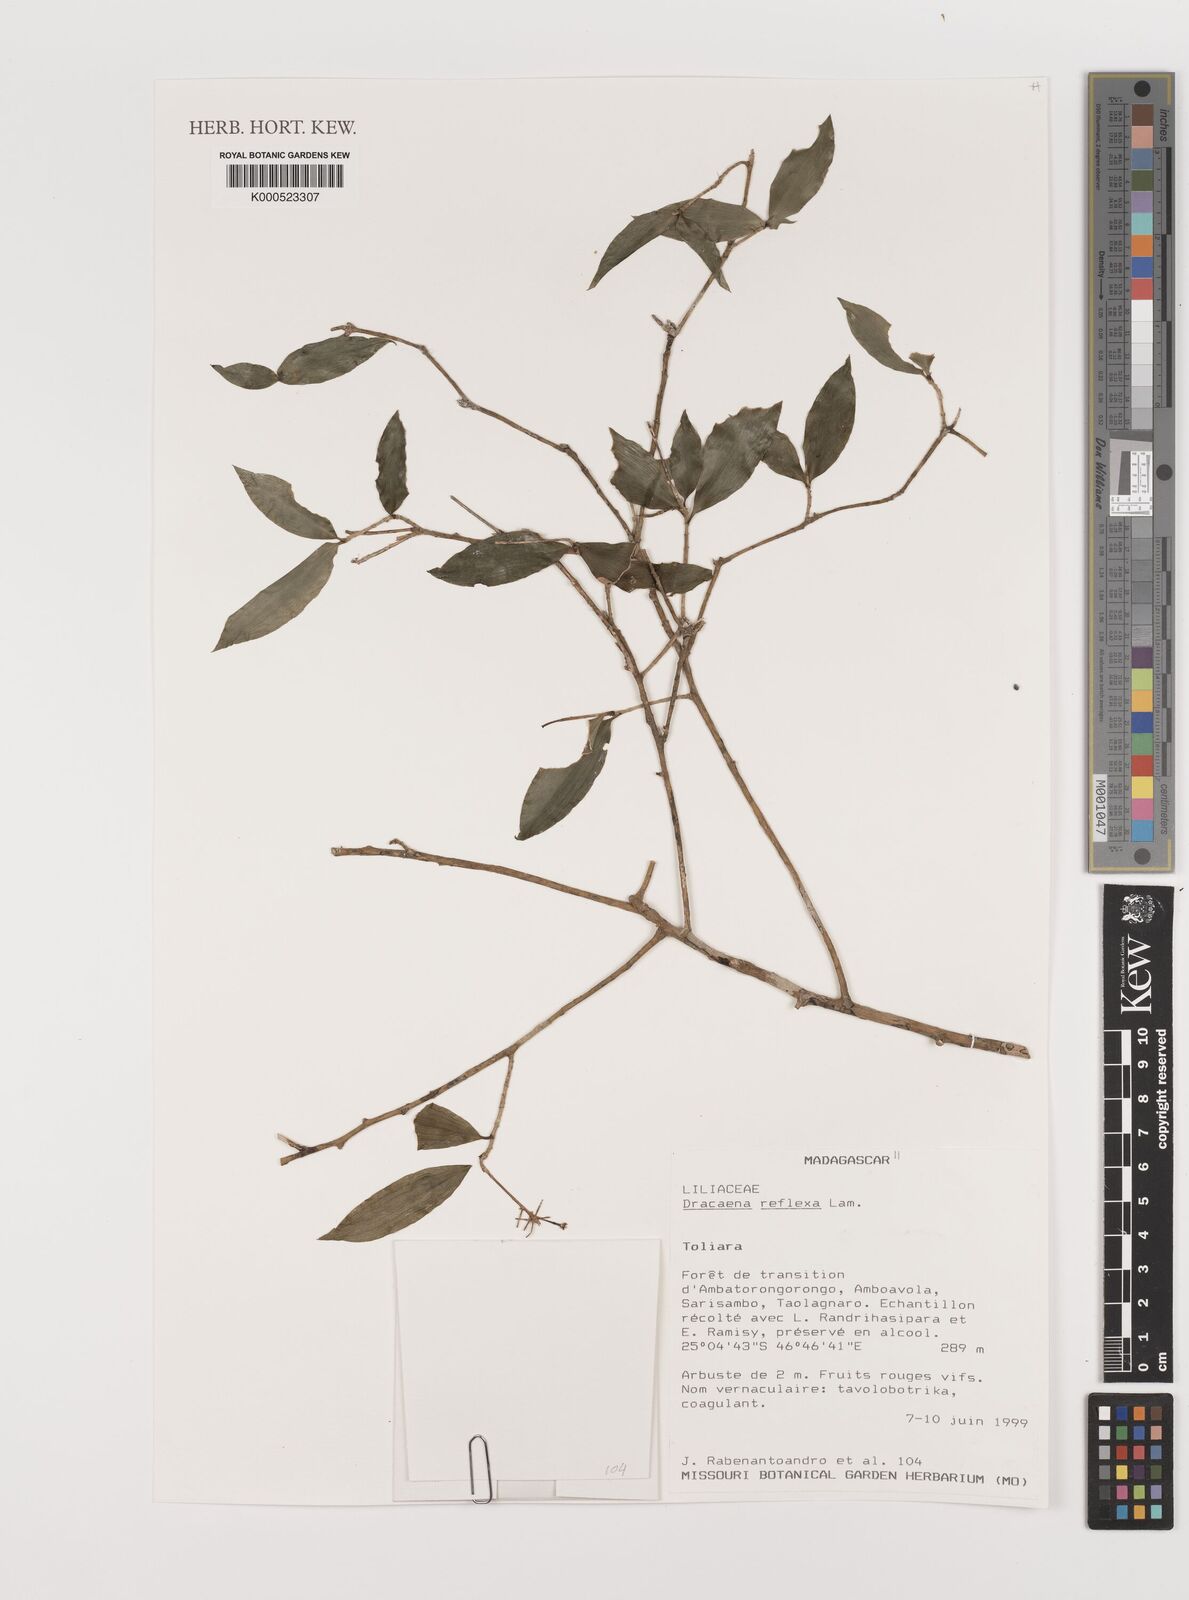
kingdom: Plantae
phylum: Tracheophyta
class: Liliopsida
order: Asparagales
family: Asparagaceae
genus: Dracaena
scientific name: Dracaena reflexa
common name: Song-of-india
